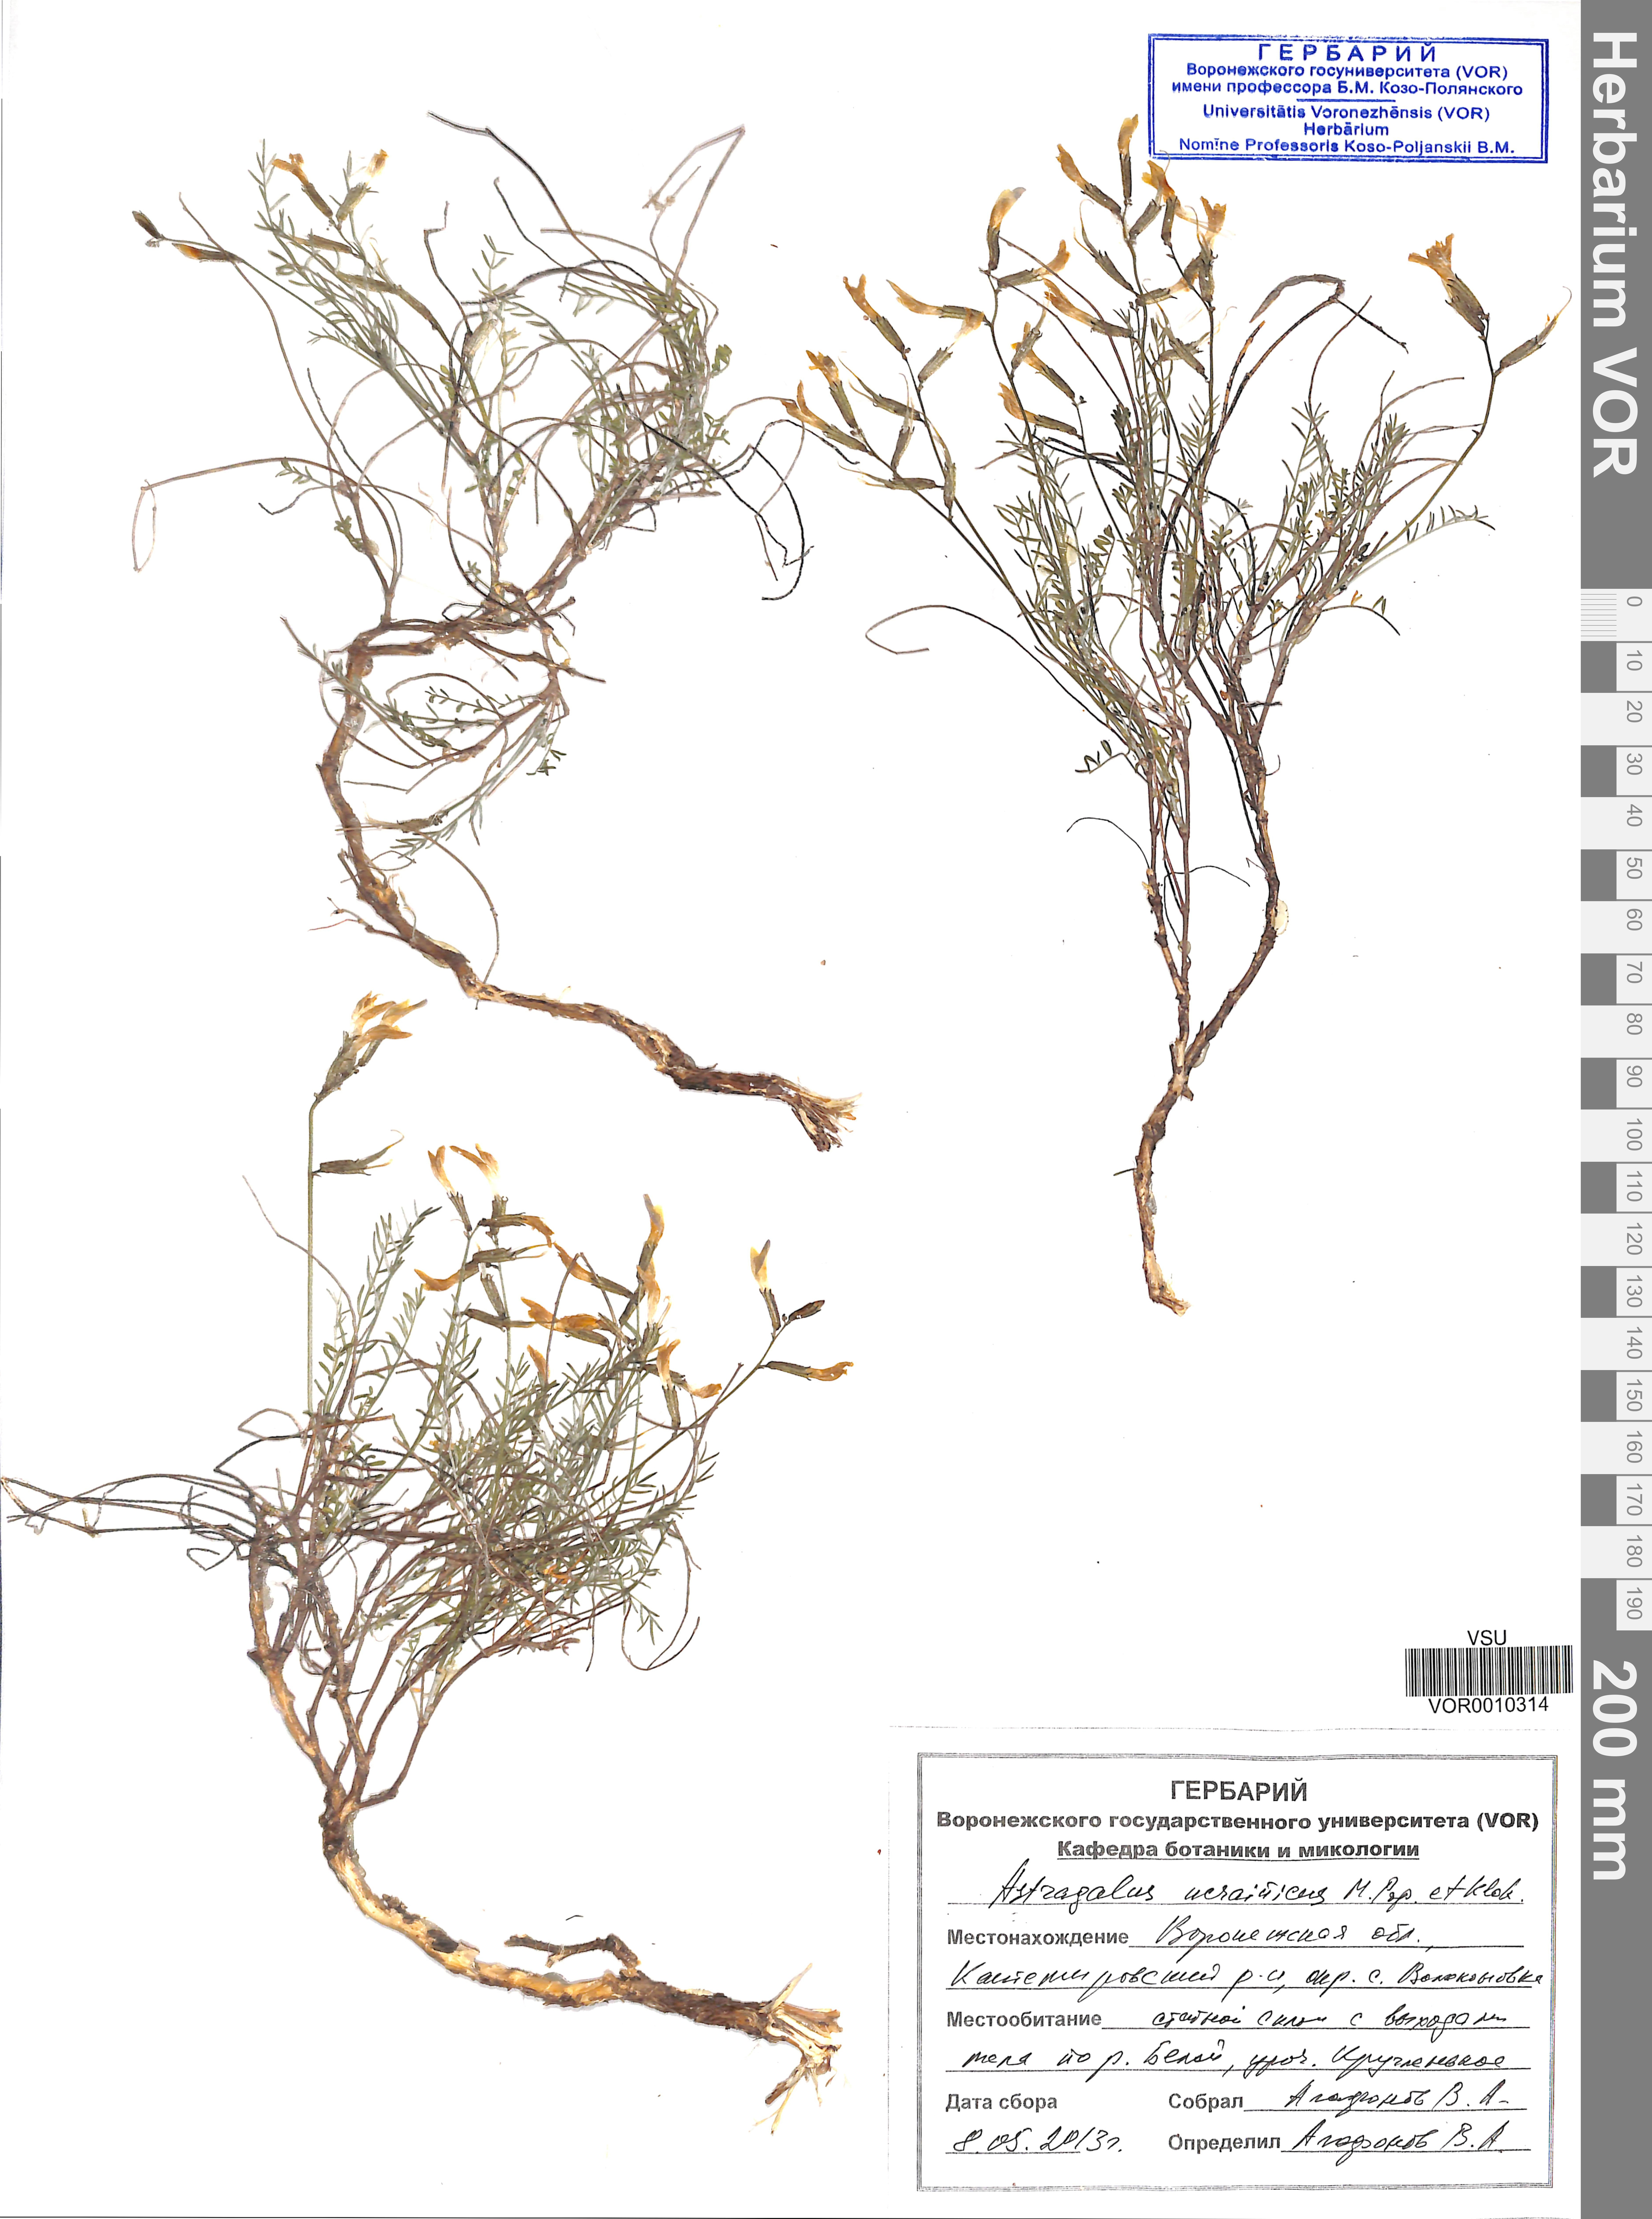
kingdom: Plantae
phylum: Tracheophyta
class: Magnoliopsida
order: Fabales
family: Fabaceae
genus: Astragalus
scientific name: Astragalus ucrainicus
